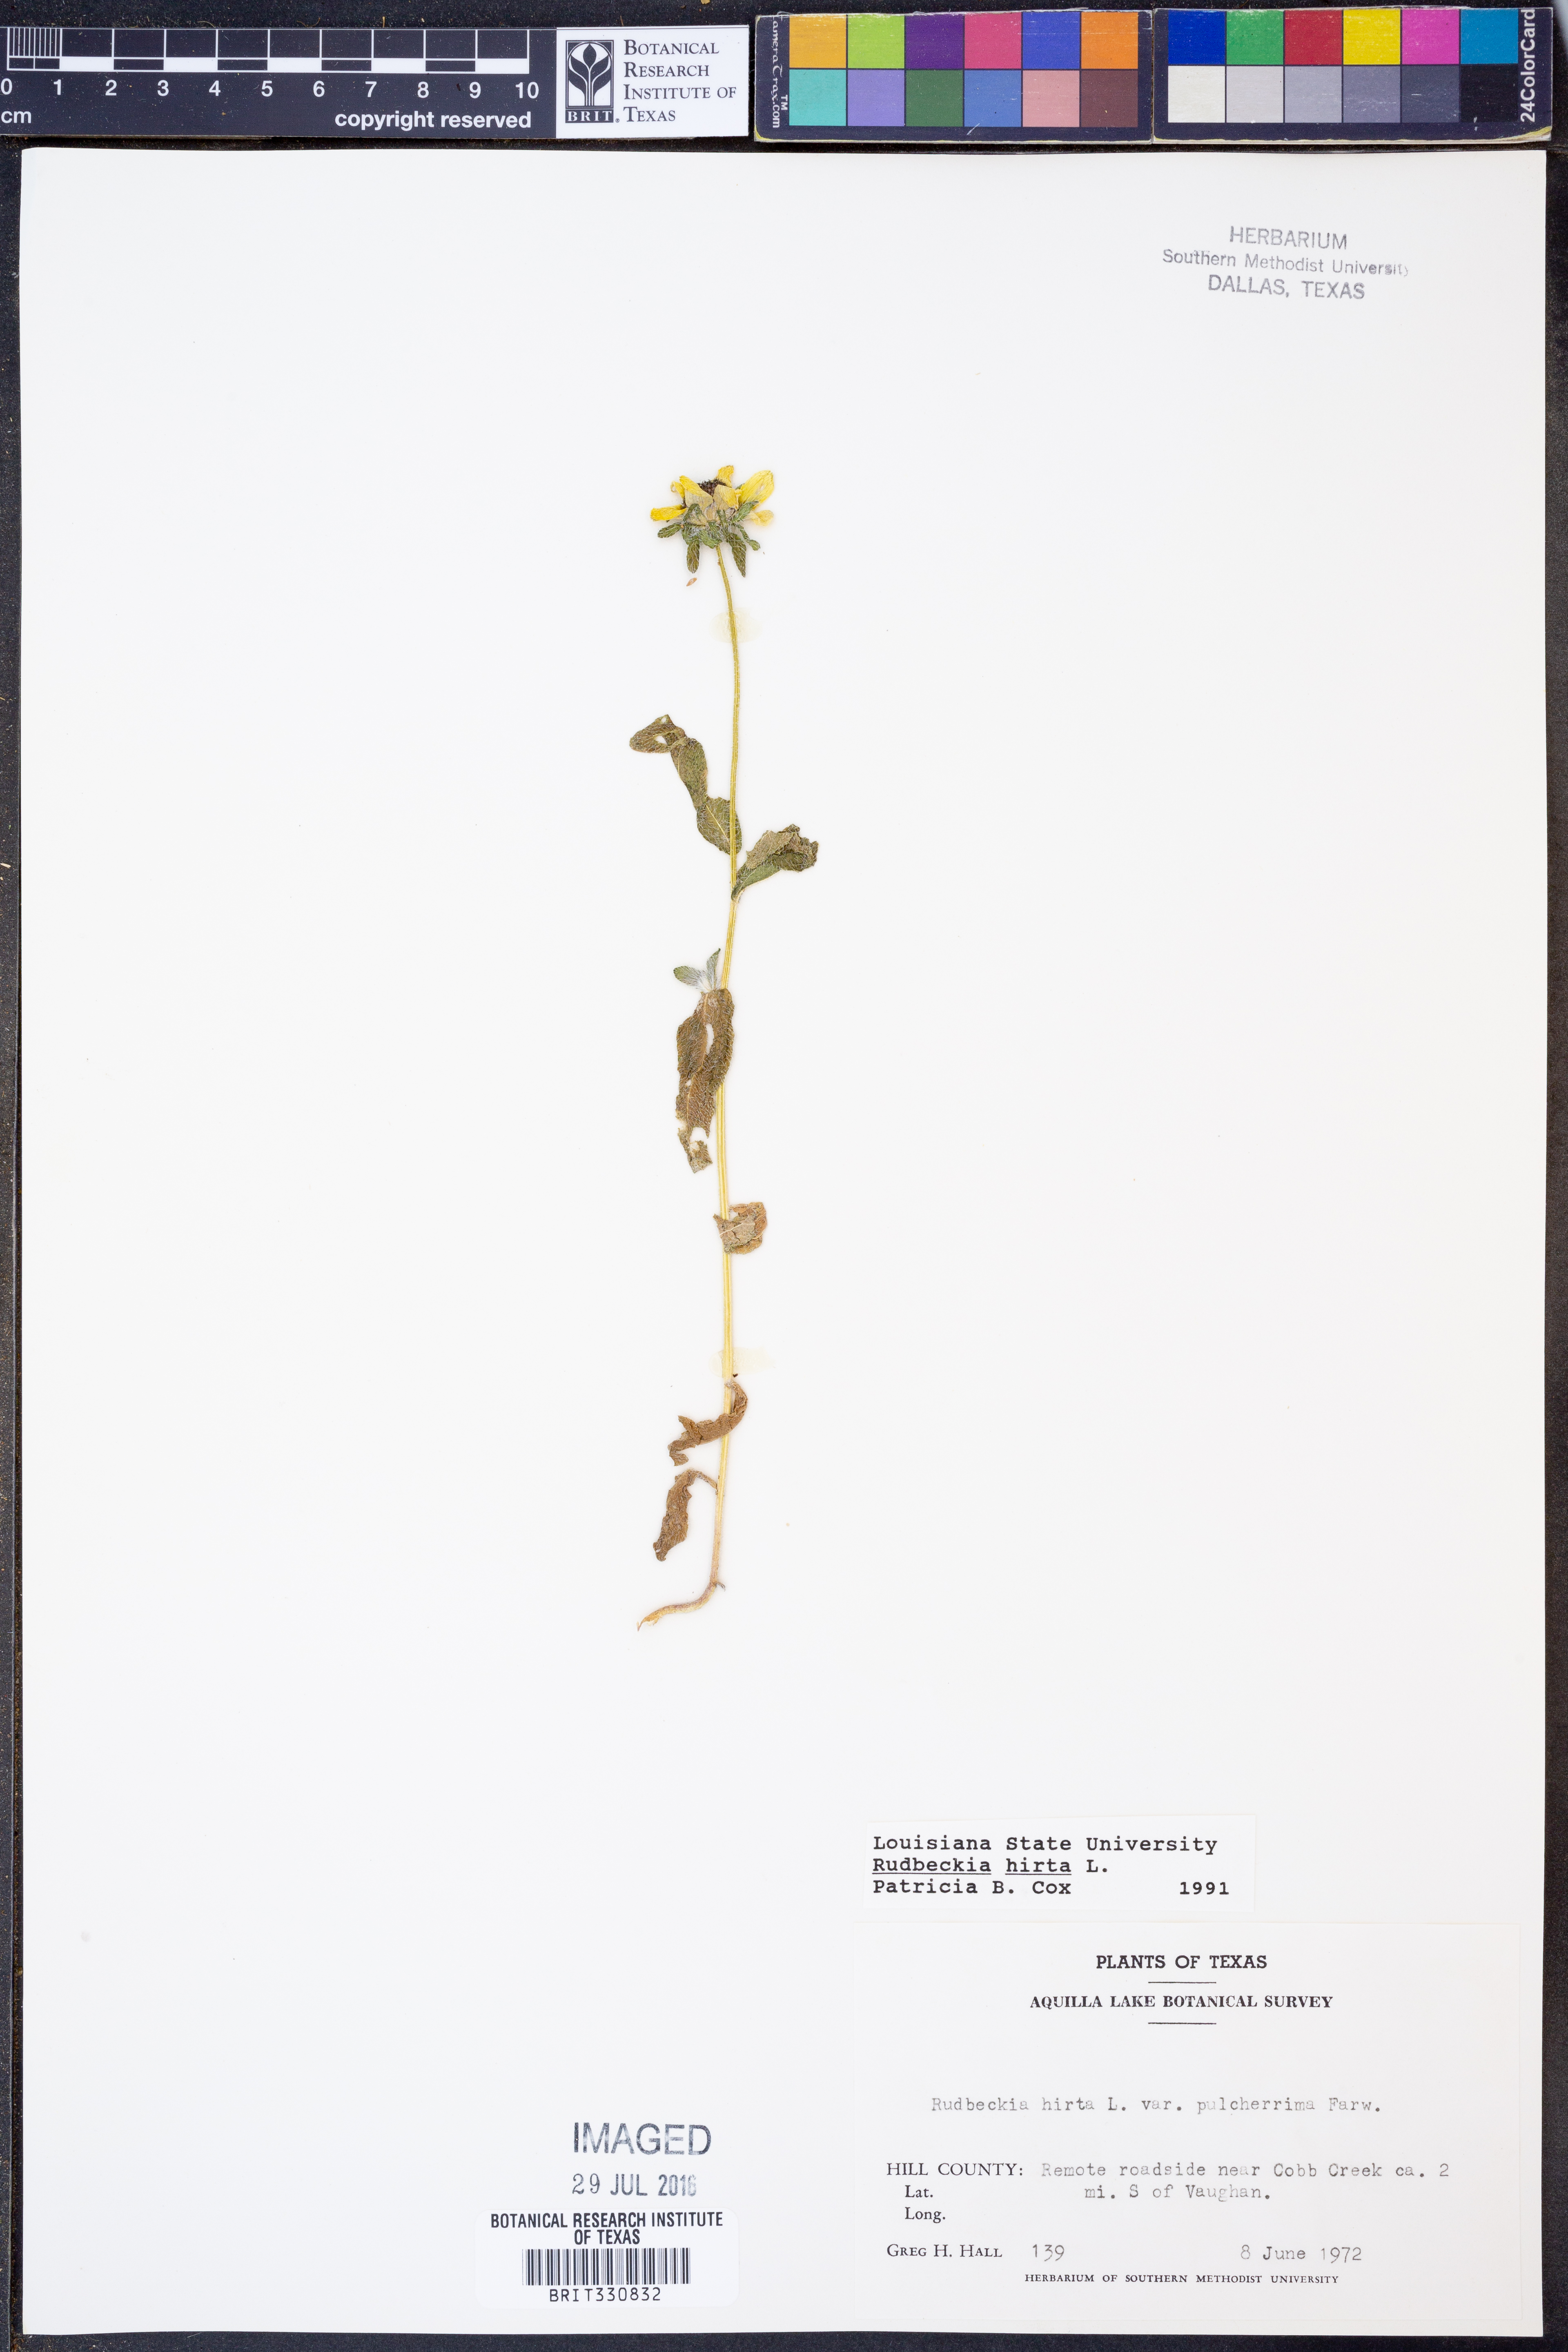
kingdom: Plantae
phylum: Tracheophyta
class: Magnoliopsida
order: Asterales
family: Asteraceae
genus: Rudbeckia
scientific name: Rudbeckia hirta
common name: Black-eyed-susan
